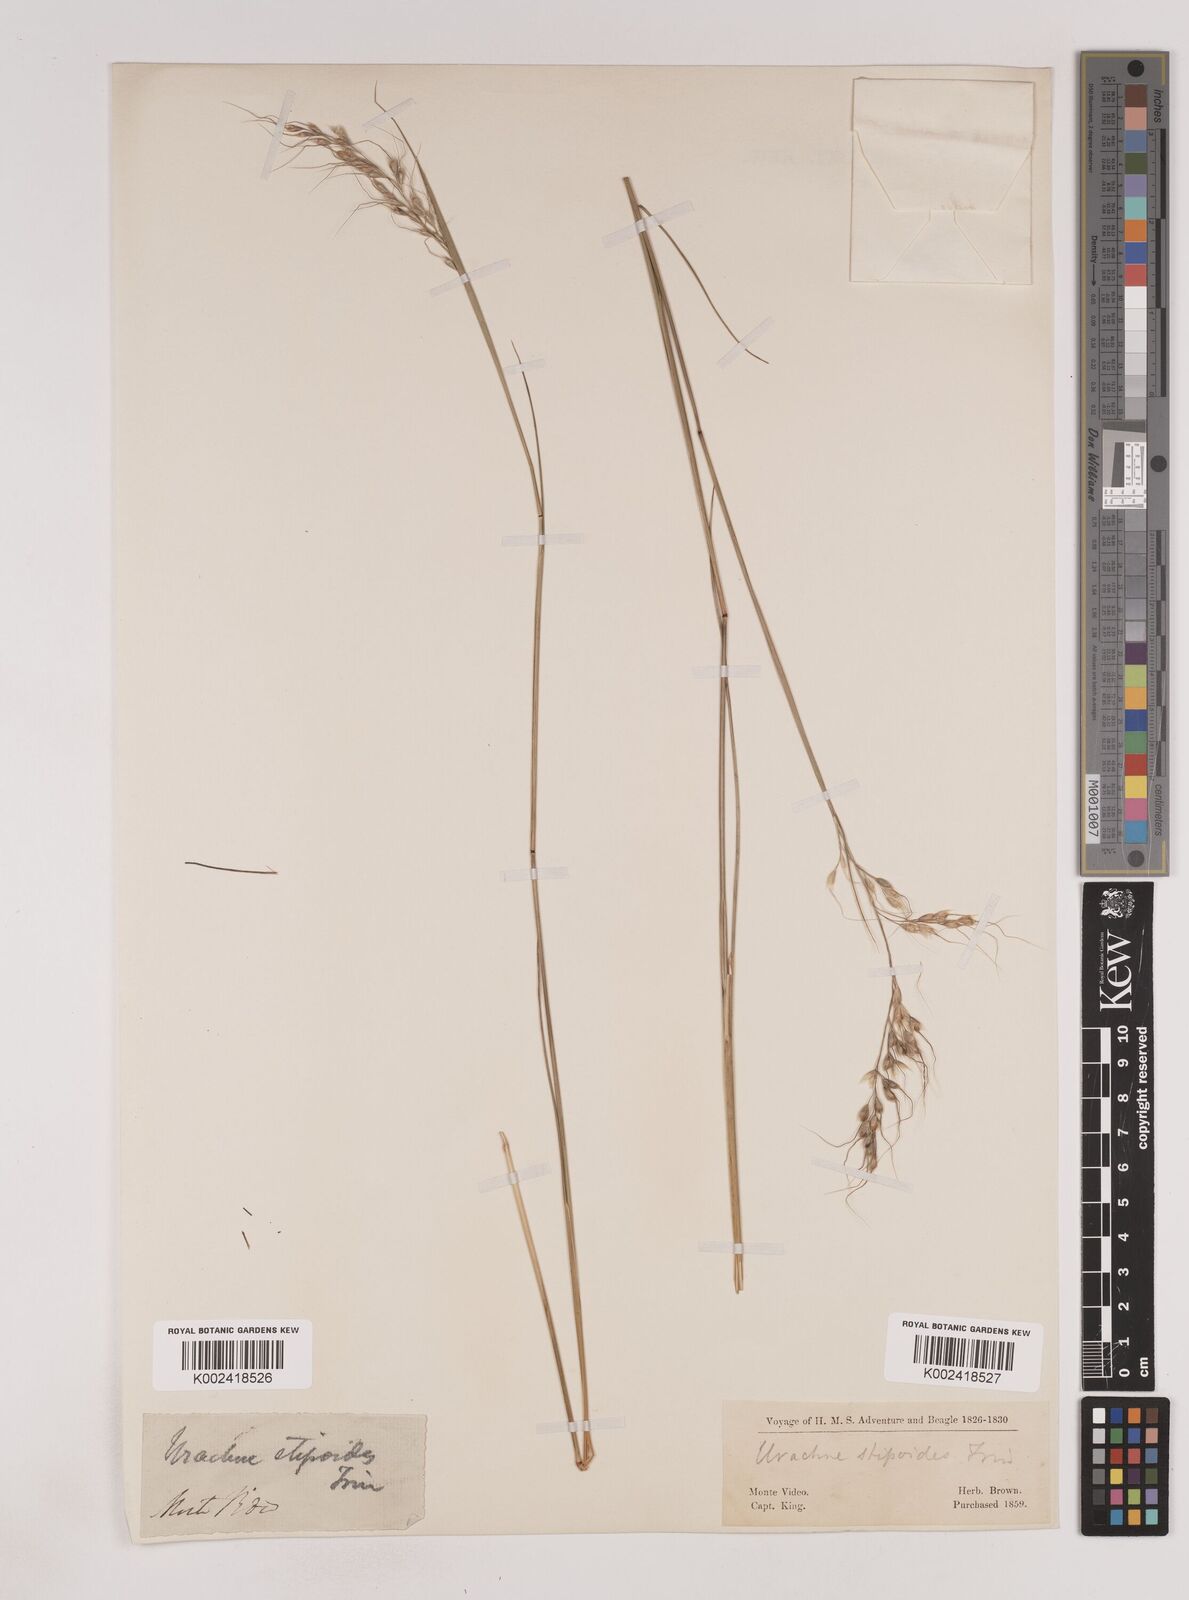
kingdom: Plantae
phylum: Tracheophyta
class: Liliopsida
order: Poales
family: Poaceae
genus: Piptochaetium
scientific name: Piptochaetium stipoides
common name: Purple speargrass
